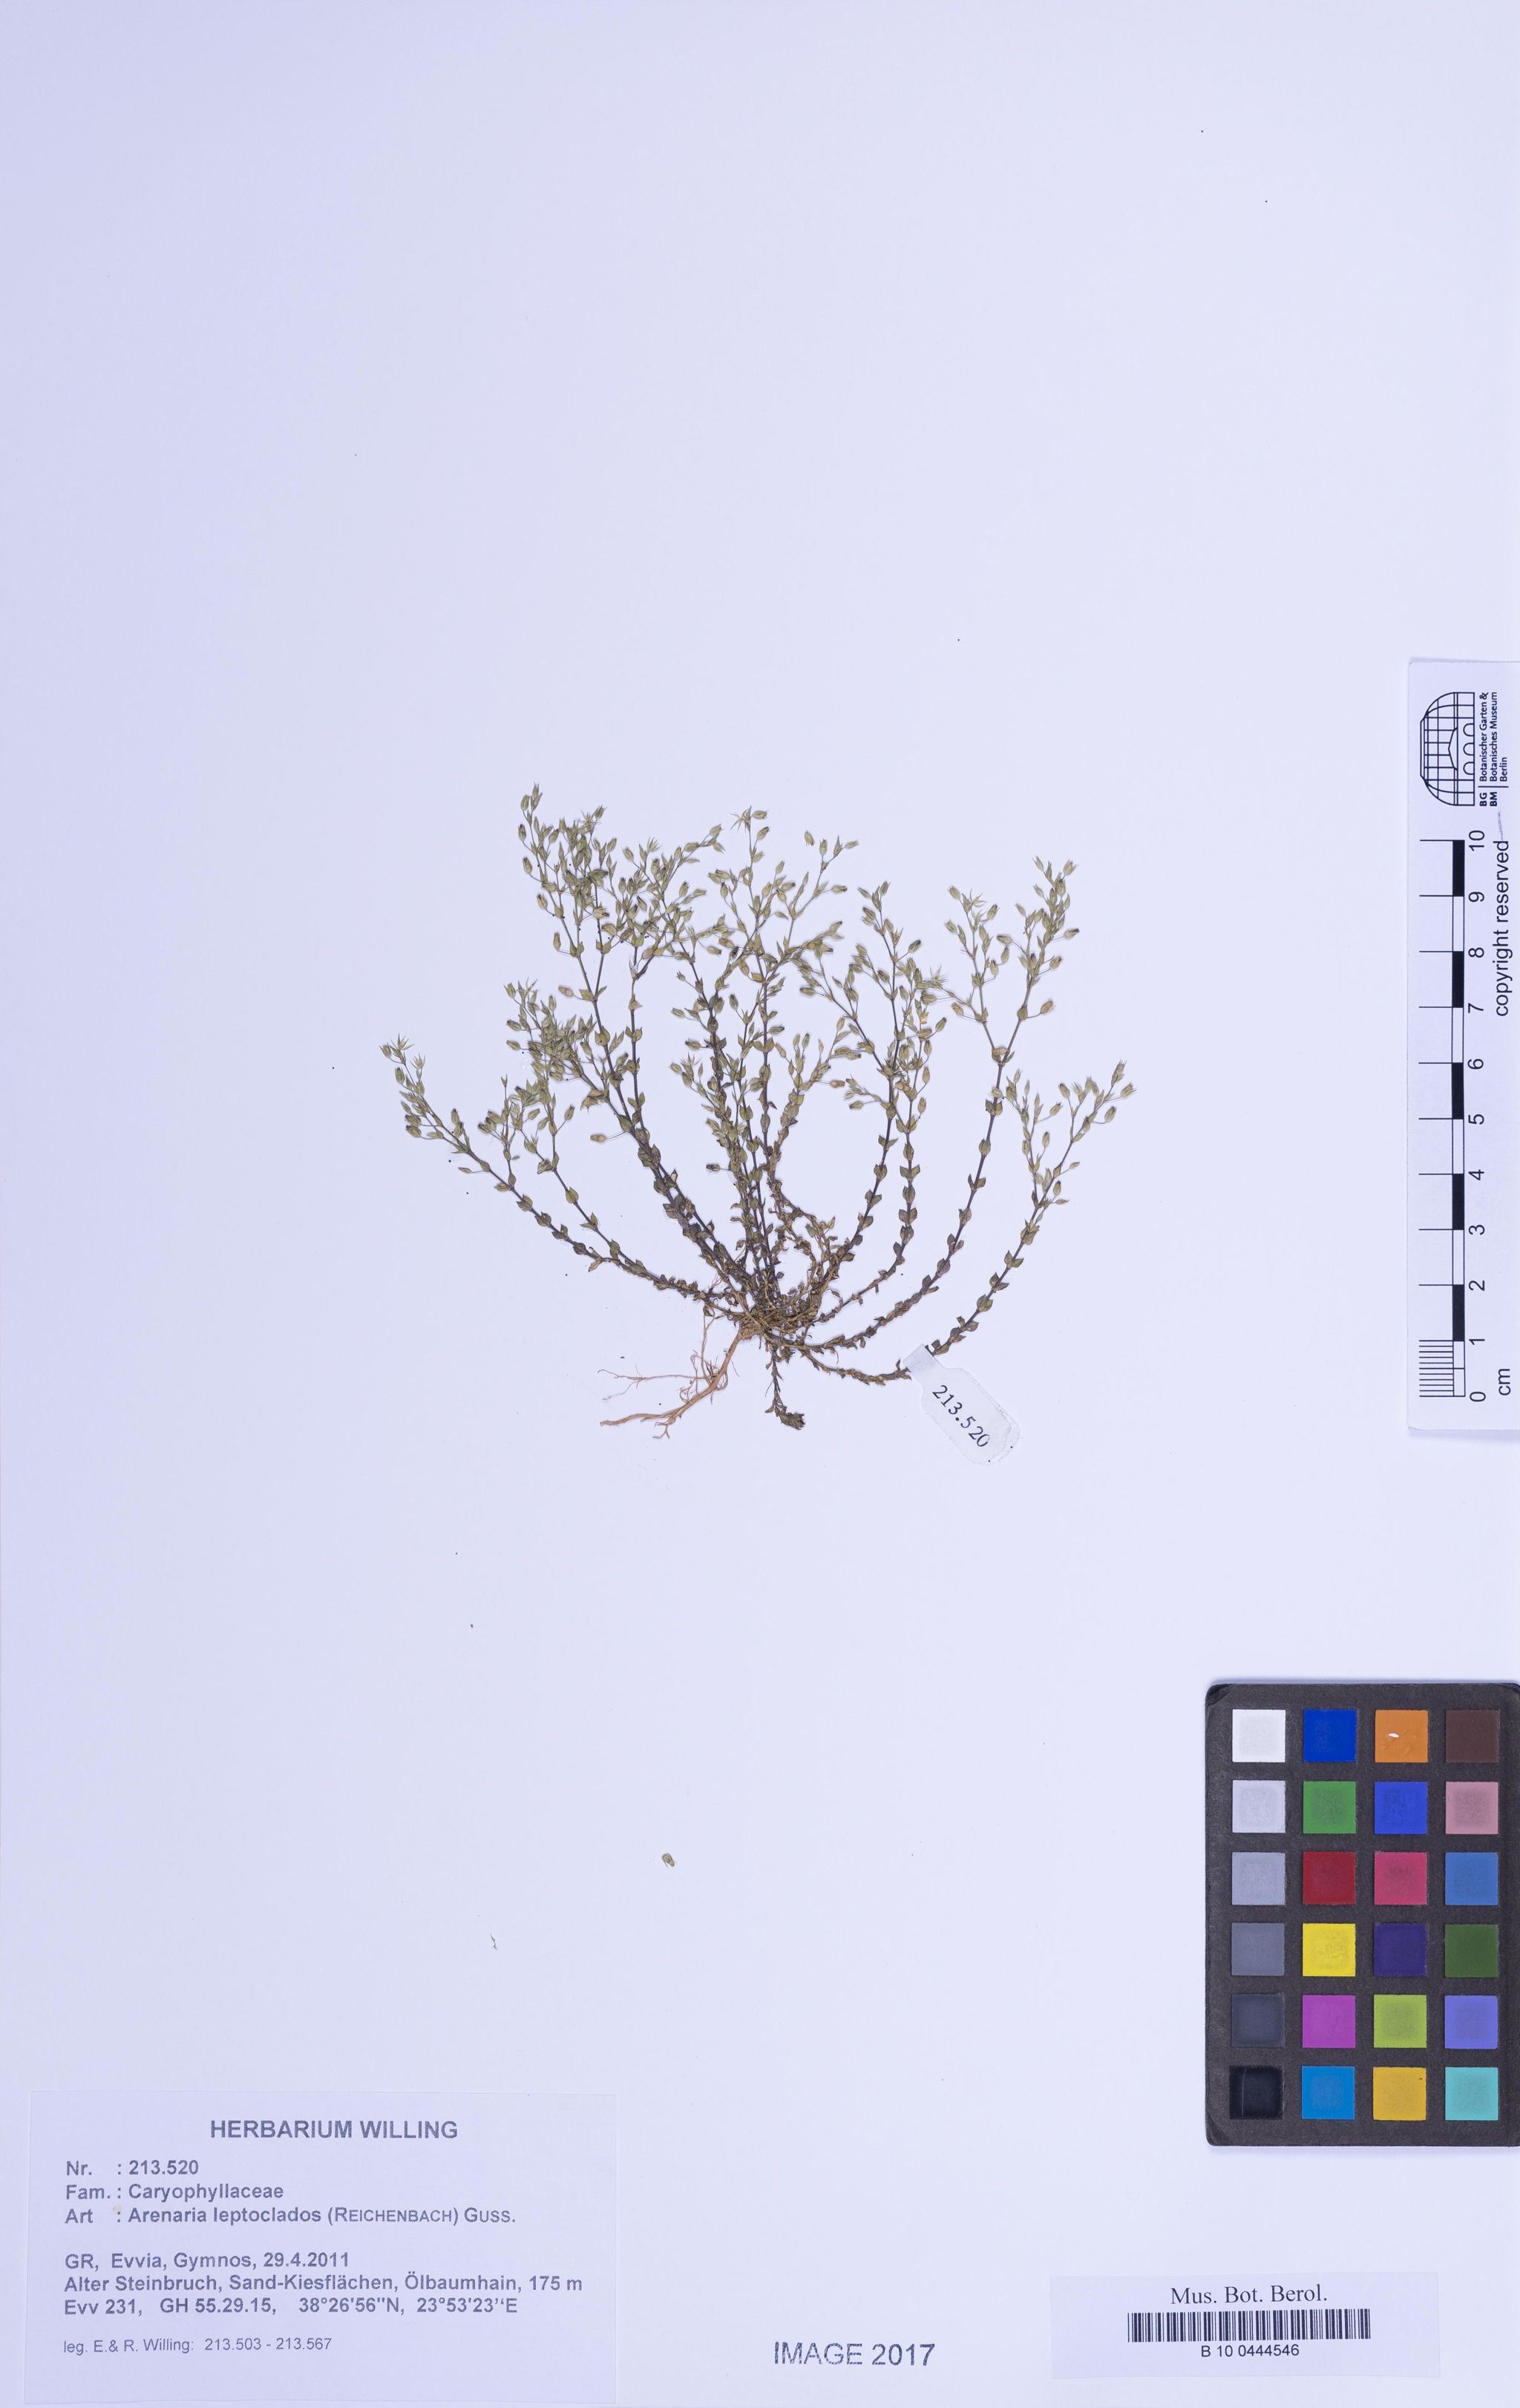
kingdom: Plantae
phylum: Tracheophyta
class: Magnoliopsida
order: Caryophyllales
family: Caryophyllaceae
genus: Arenaria
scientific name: Arenaria leptoclados
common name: Thyme-leaved sandwort
